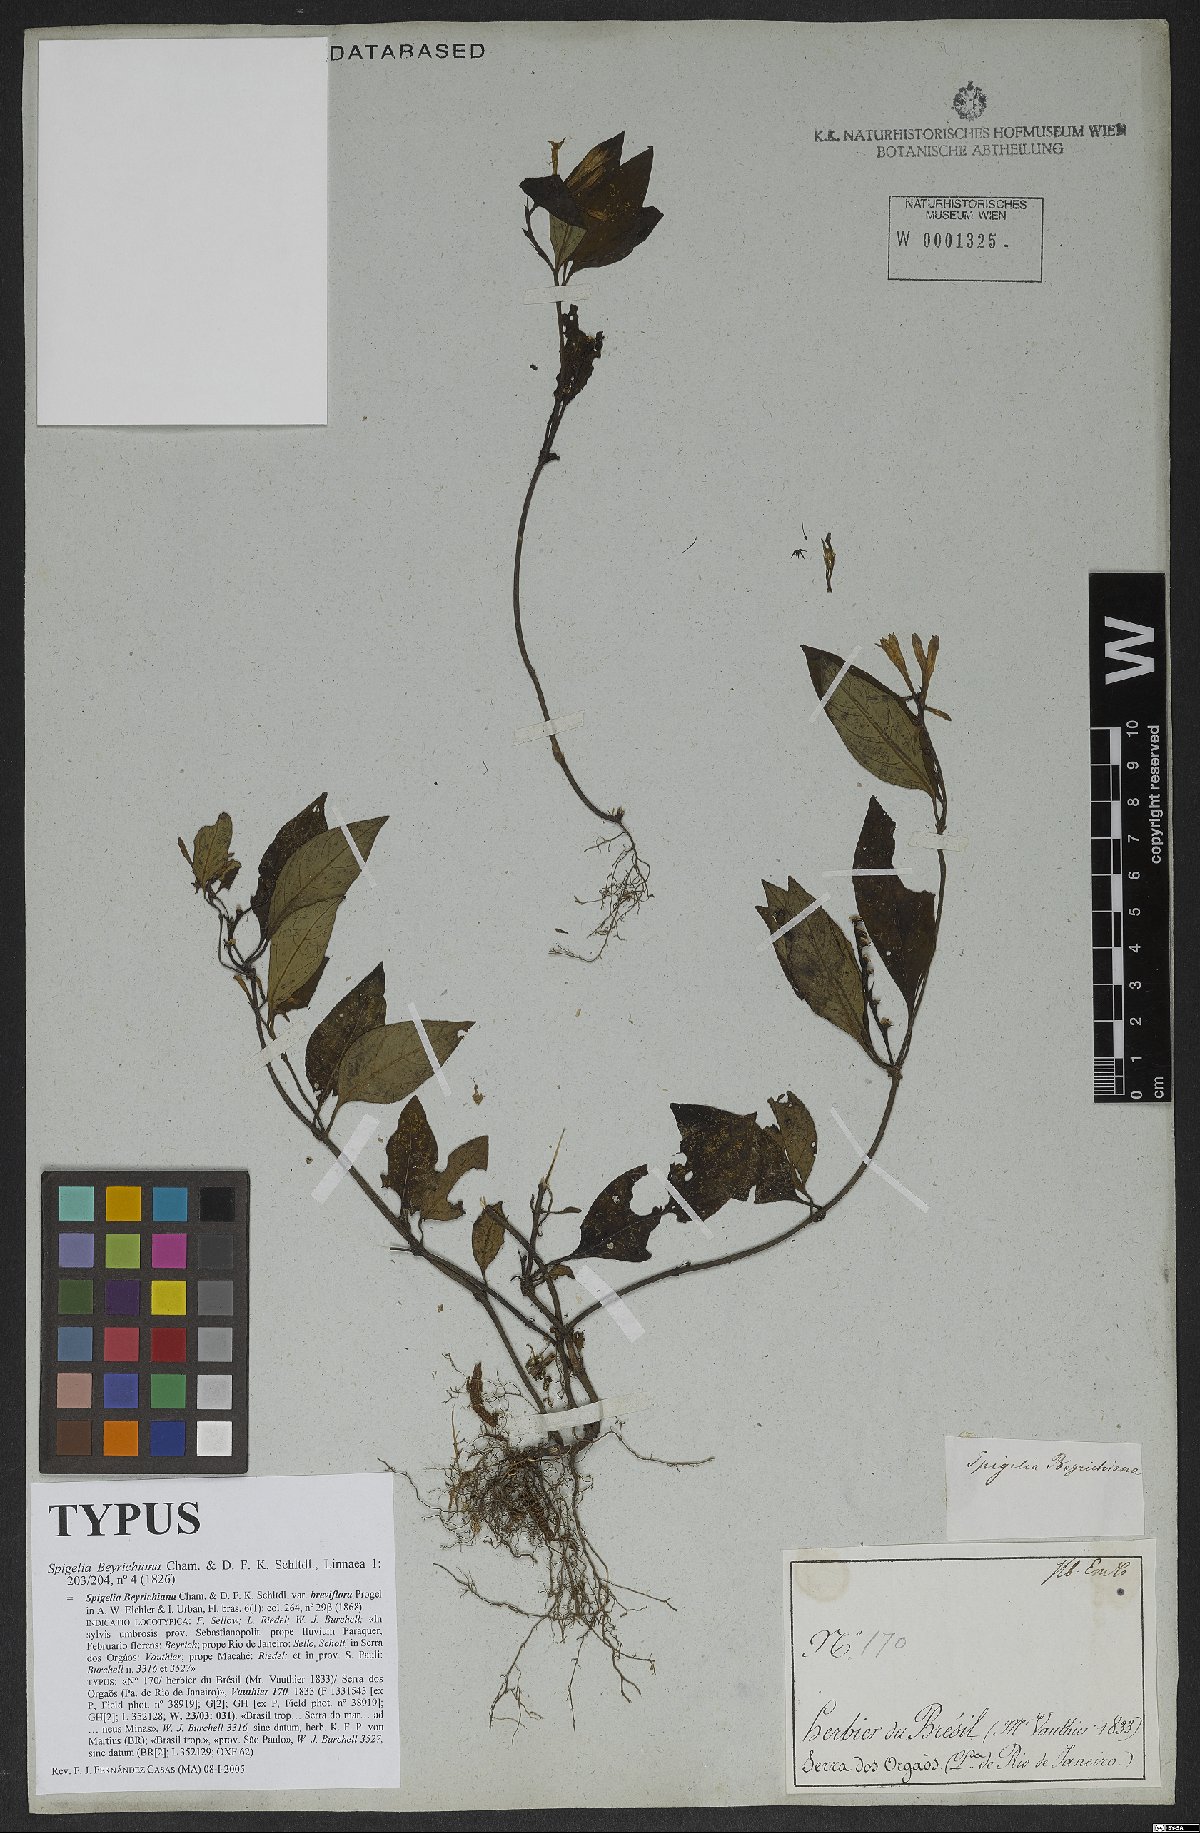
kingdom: Plantae
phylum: Tracheophyta
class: Magnoliopsida
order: Gentianales
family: Loganiaceae
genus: Spigelia
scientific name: Spigelia beyrichiana
